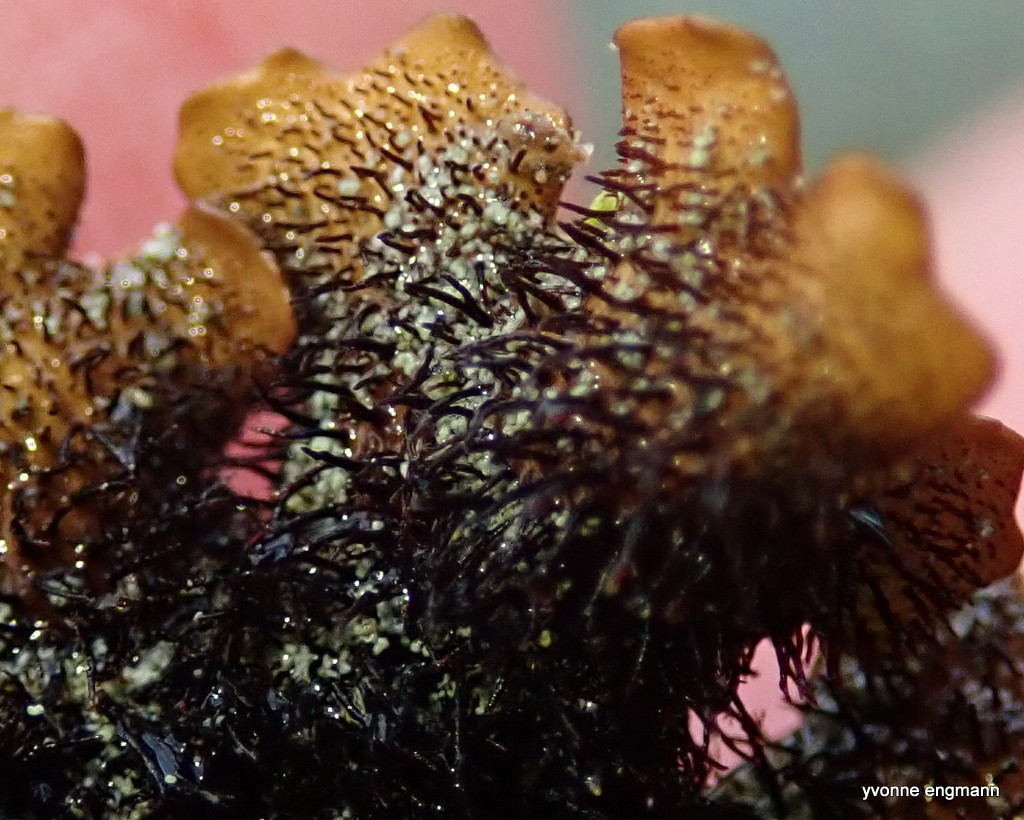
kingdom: Fungi
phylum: Ascomycota
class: Lecanoromycetes
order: Lecanorales
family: Parmeliaceae
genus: Parmelia
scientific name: Parmelia saxatilis
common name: farve-skållav
